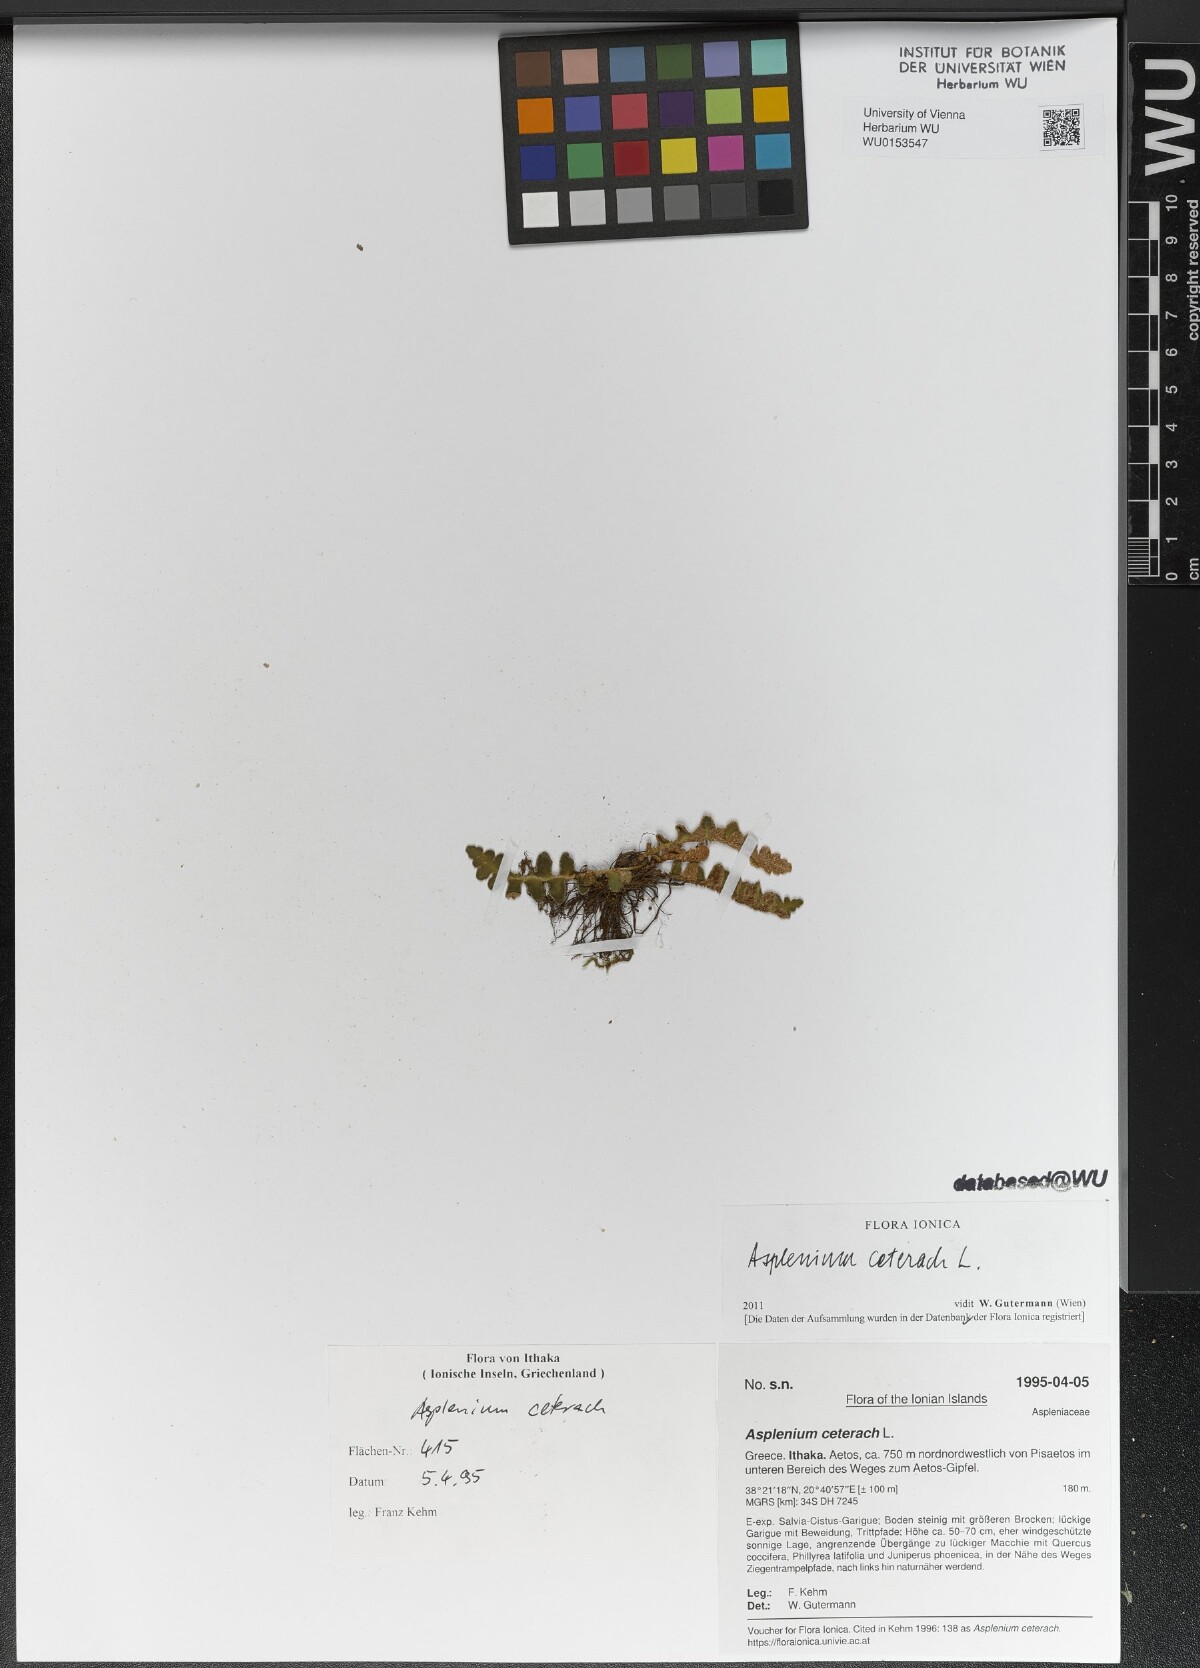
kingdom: Plantae
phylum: Tracheophyta
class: Polypodiopsida
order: Polypodiales
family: Aspleniaceae
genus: Asplenium
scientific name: Asplenium ceterach
